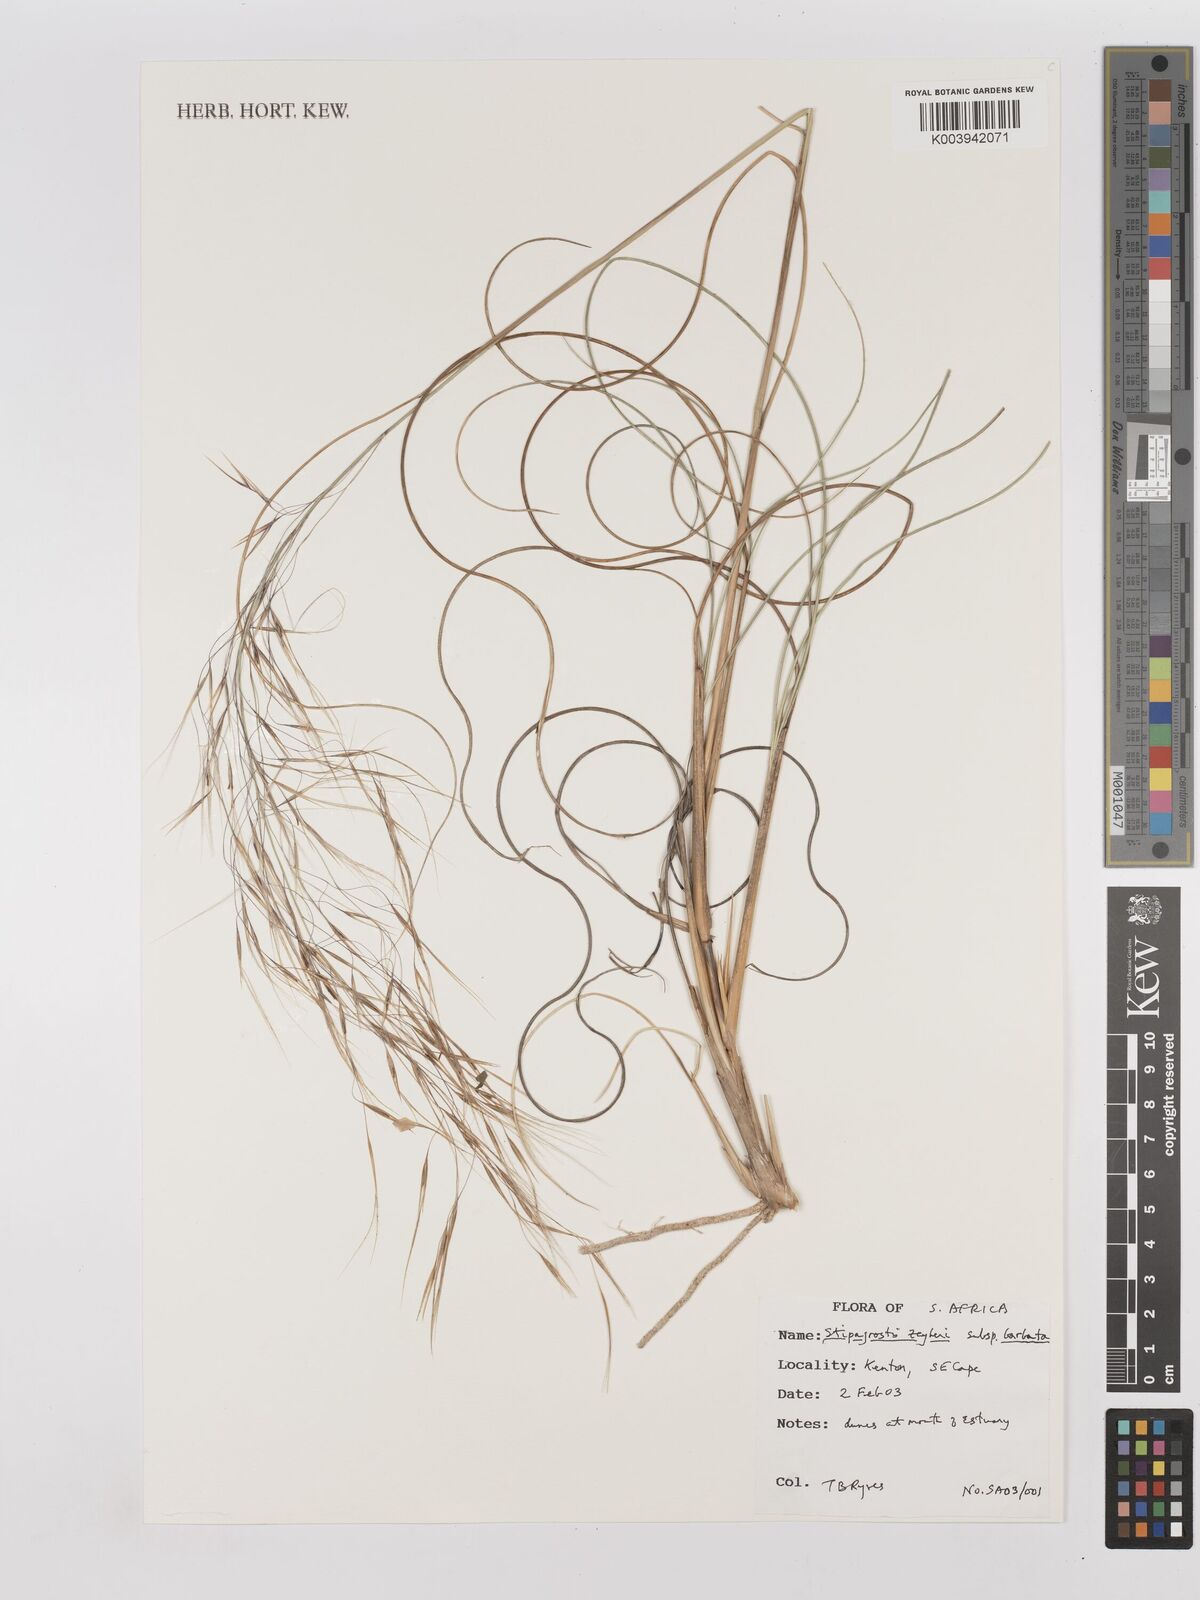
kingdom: Plantae
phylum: Tracheophyta
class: Liliopsida
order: Poales
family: Poaceae
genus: Stipagrostis
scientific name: Stipagrostis zeyheri
